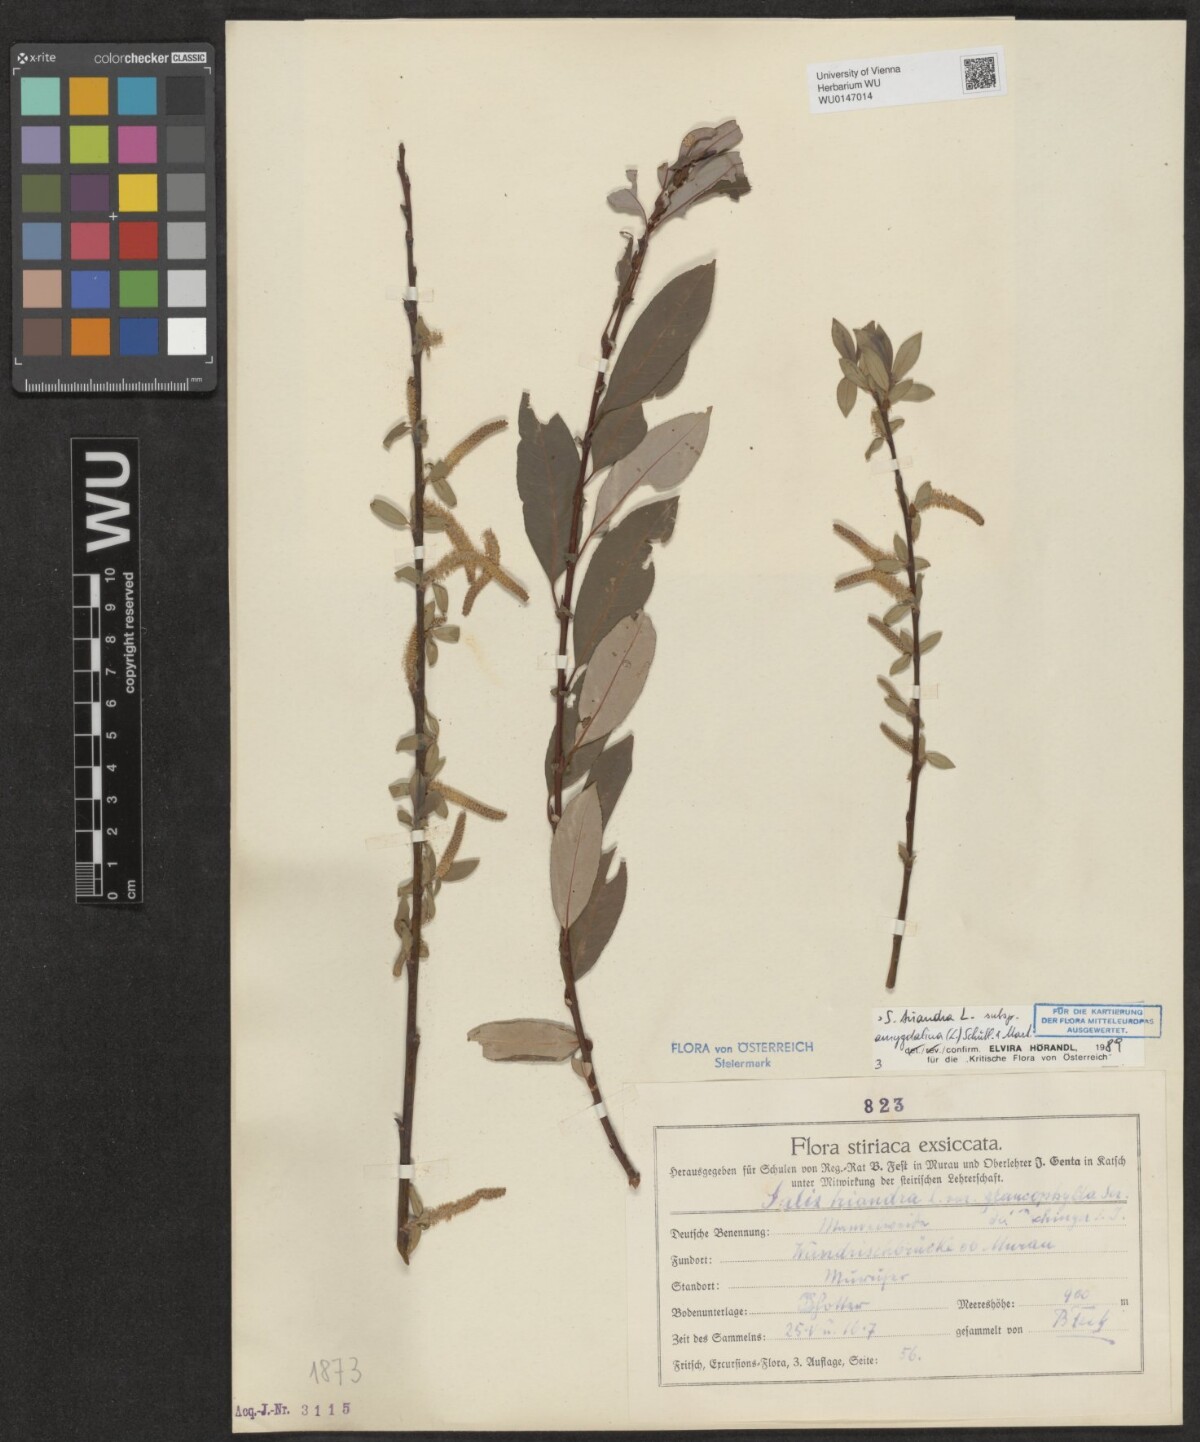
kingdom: Plantae
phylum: Tracheophyta
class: Magnoliopsida
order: Malpighiales
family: Salicaceae
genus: Salix
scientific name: Salix triandra
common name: Almond willow
